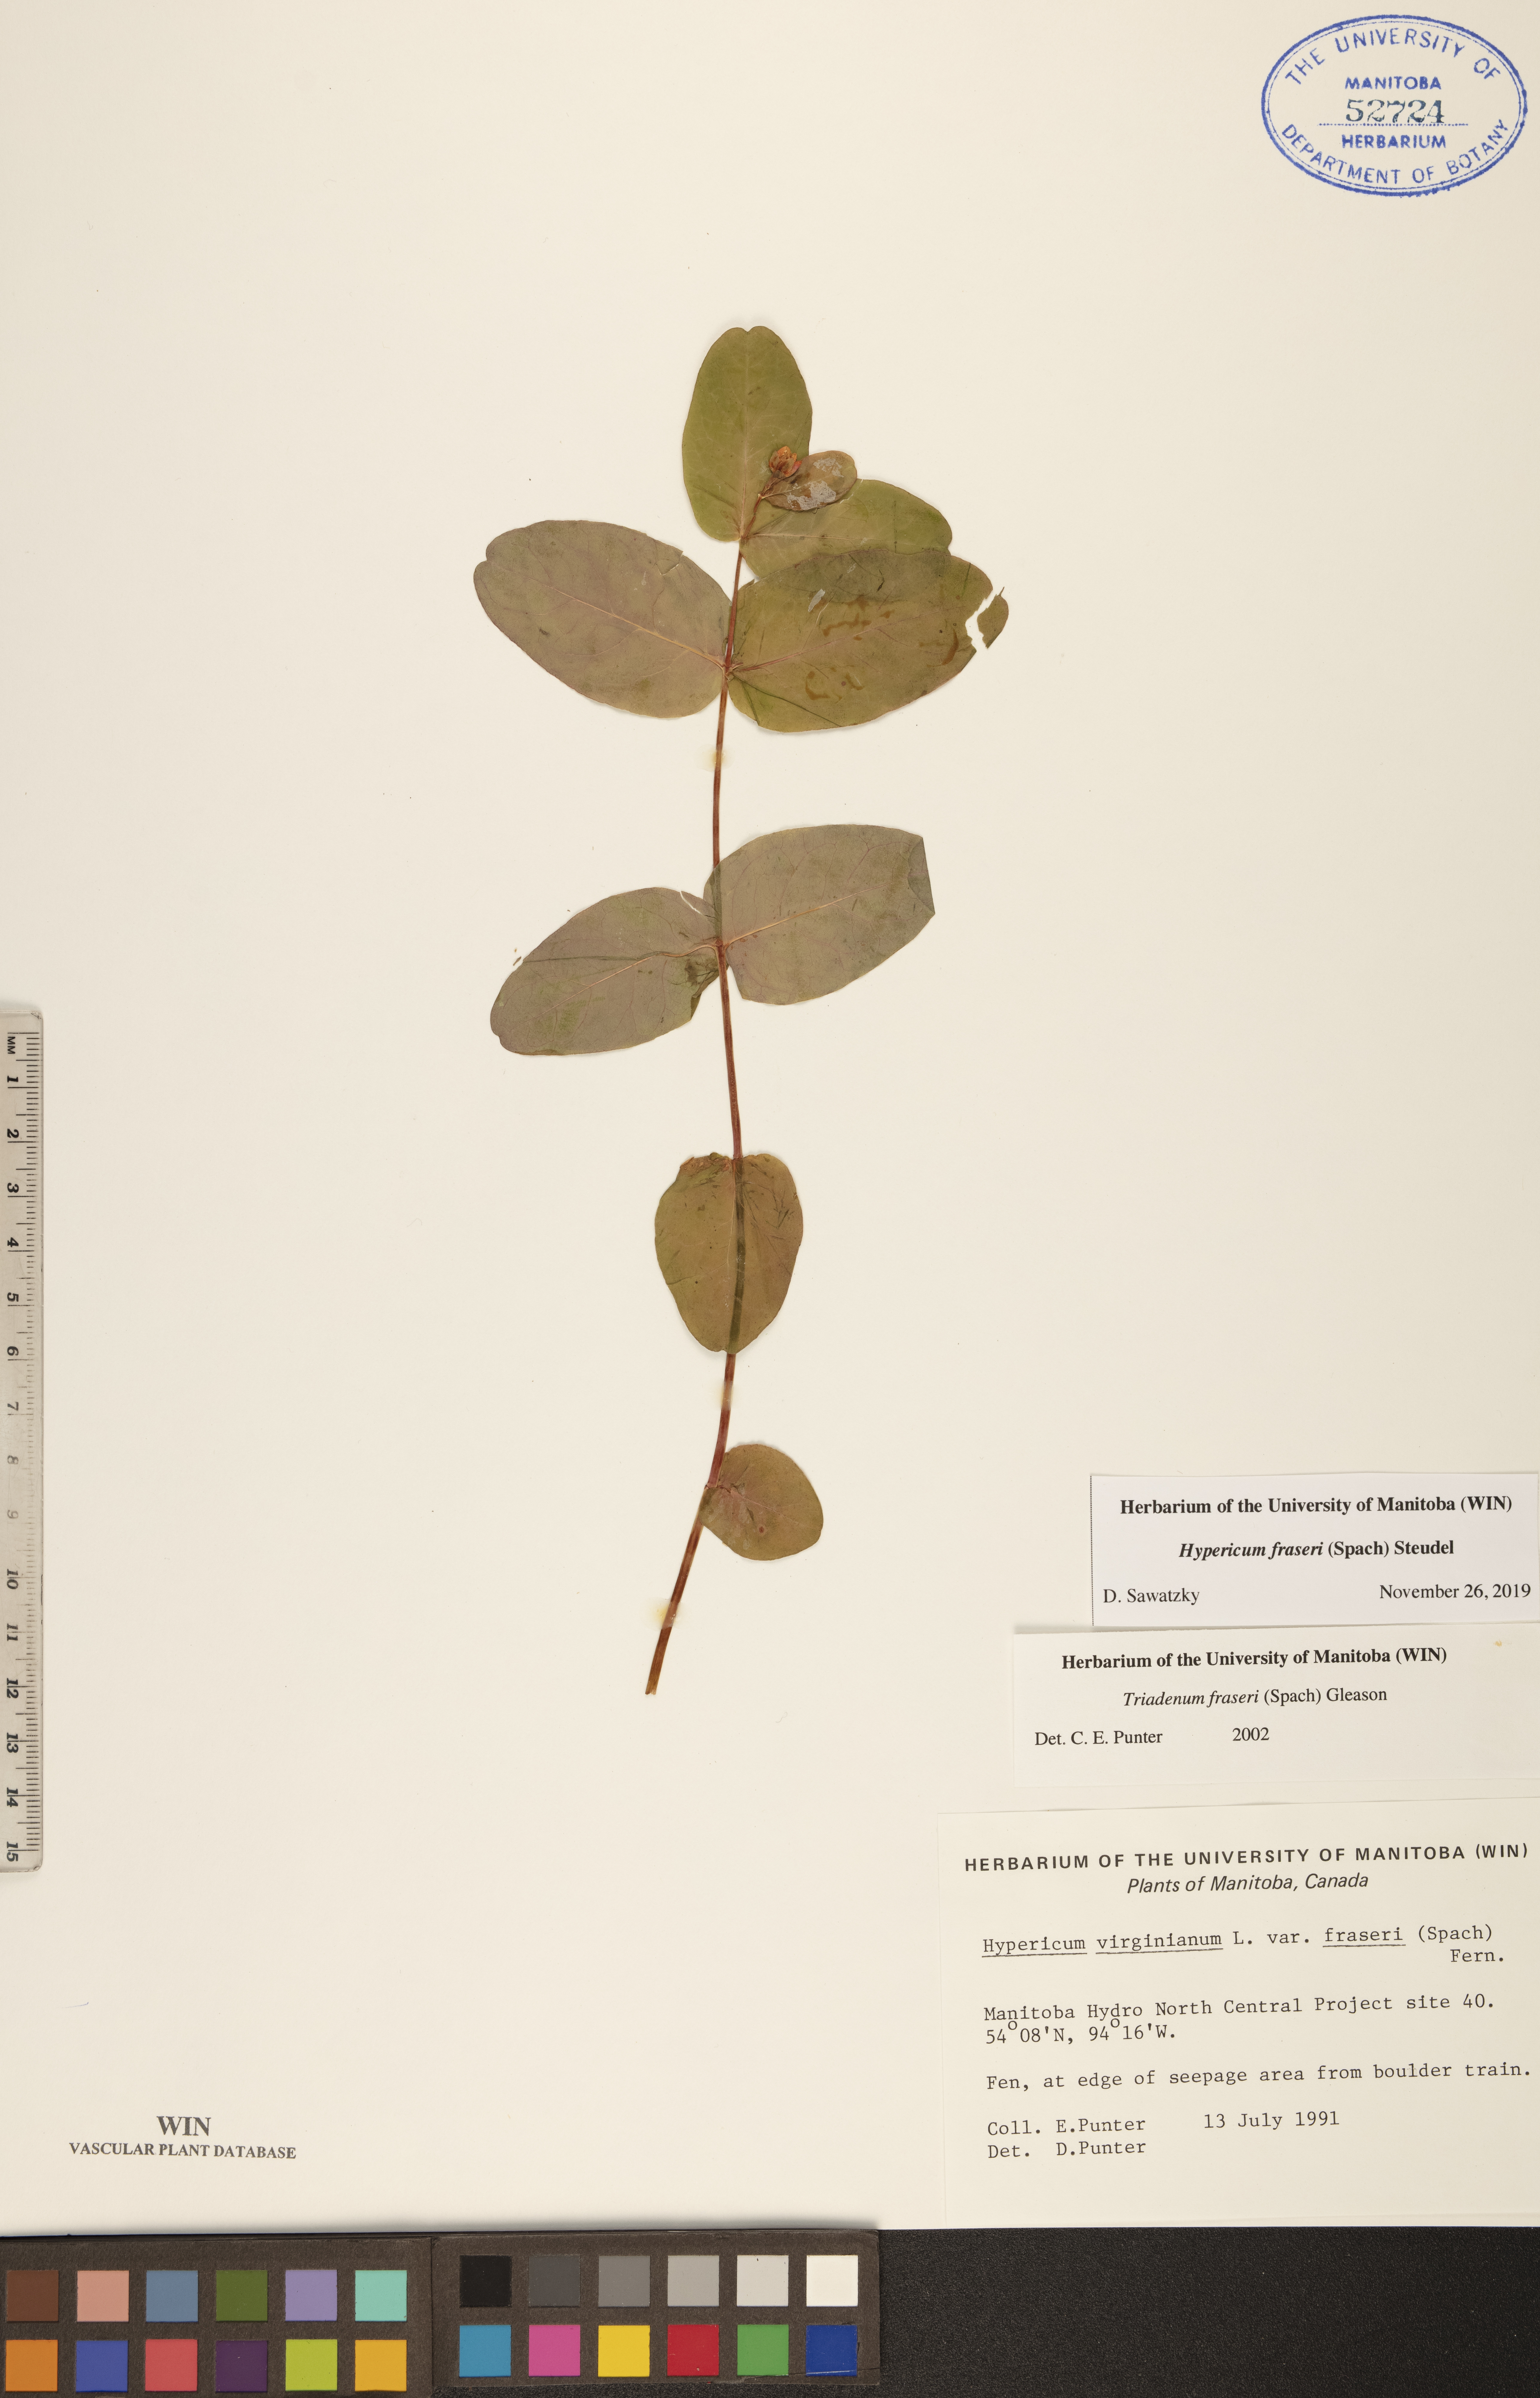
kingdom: Plantae
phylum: Tracheophyta
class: Magnoliopsida
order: Malpighiales
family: Hypericaceae
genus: Triadenum
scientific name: Triadenum fraseri
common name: Fraser's marsh st. johnswort
